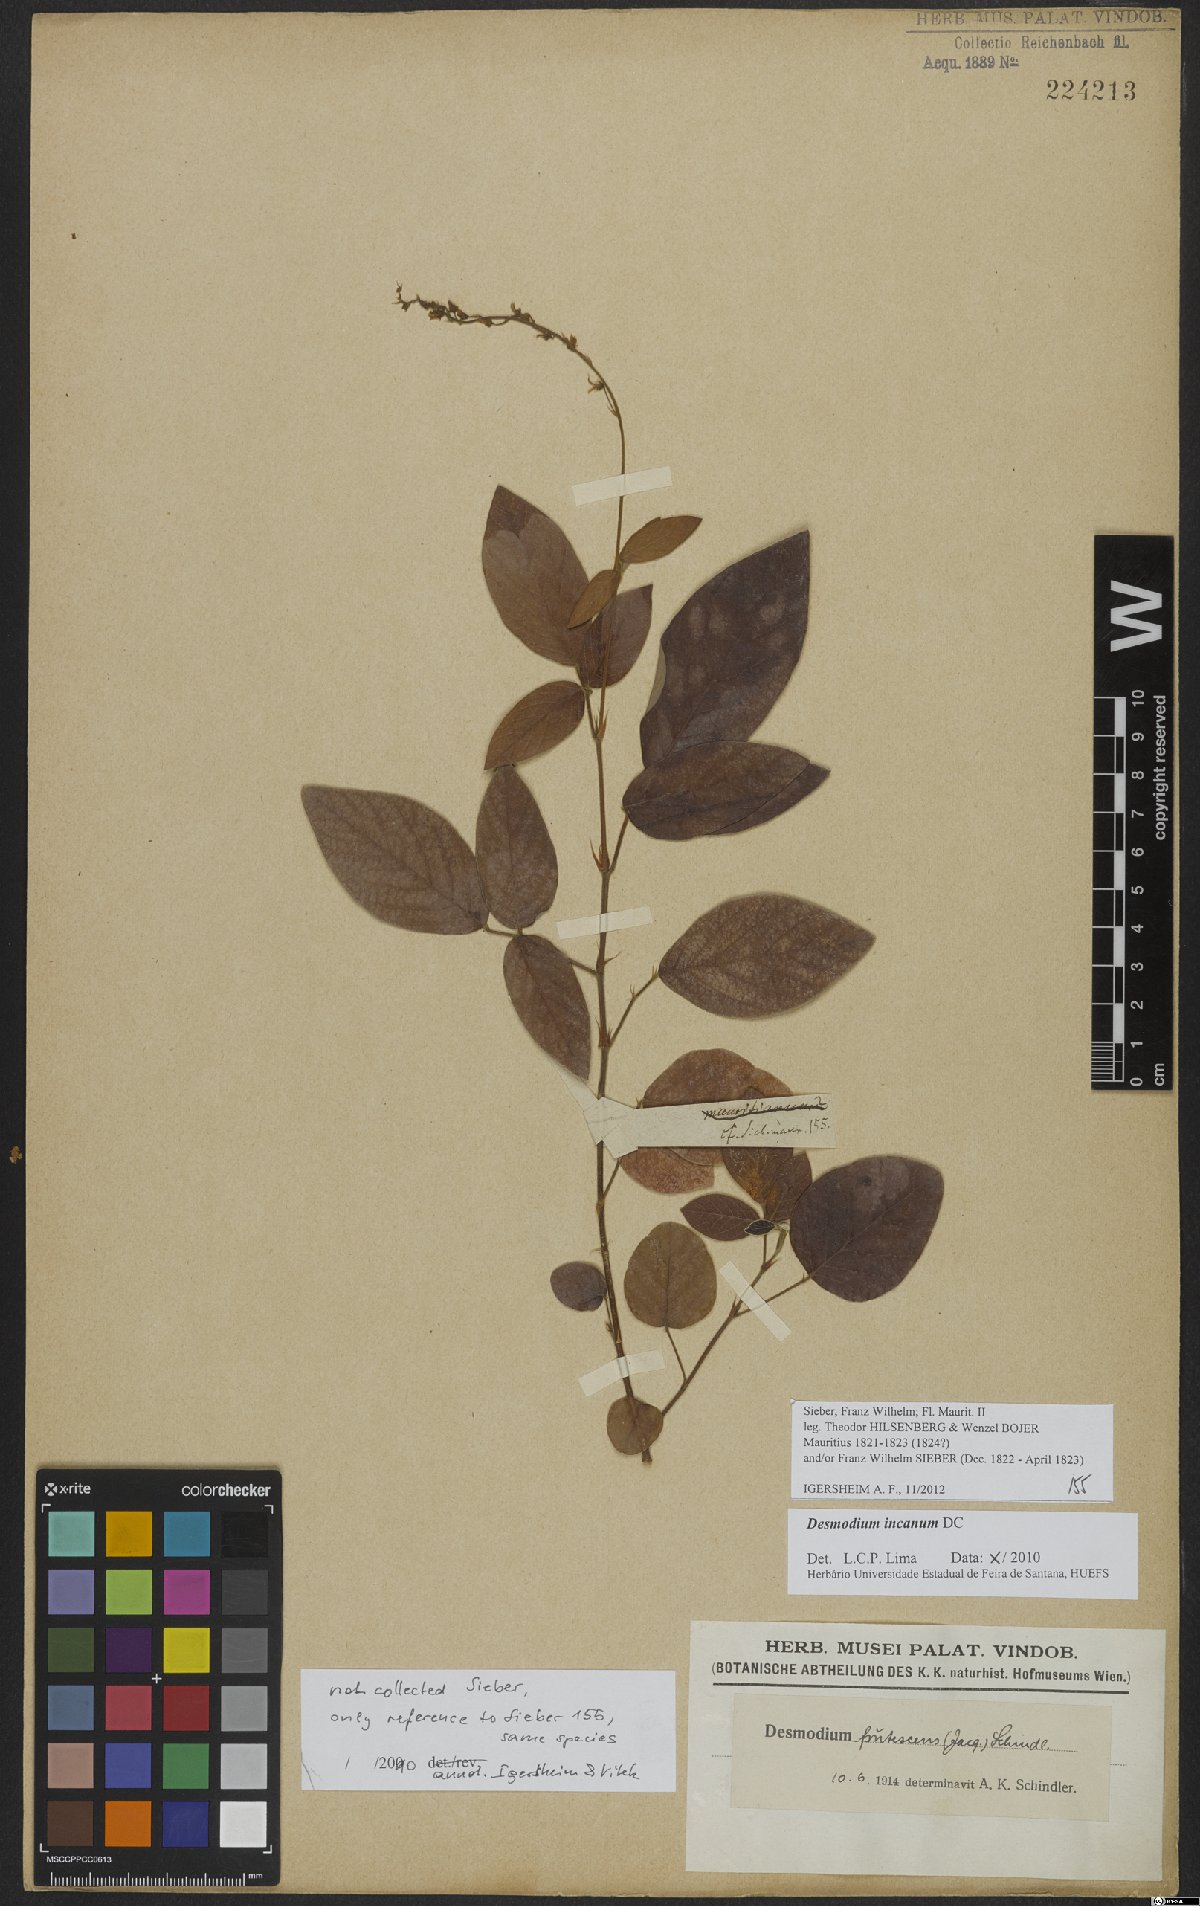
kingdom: Plantae
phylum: Tracheophyta
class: Magnoliopsida
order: Fabales
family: Fabaceae
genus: Desmodium
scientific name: Desmodium incanum
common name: Tickclover
